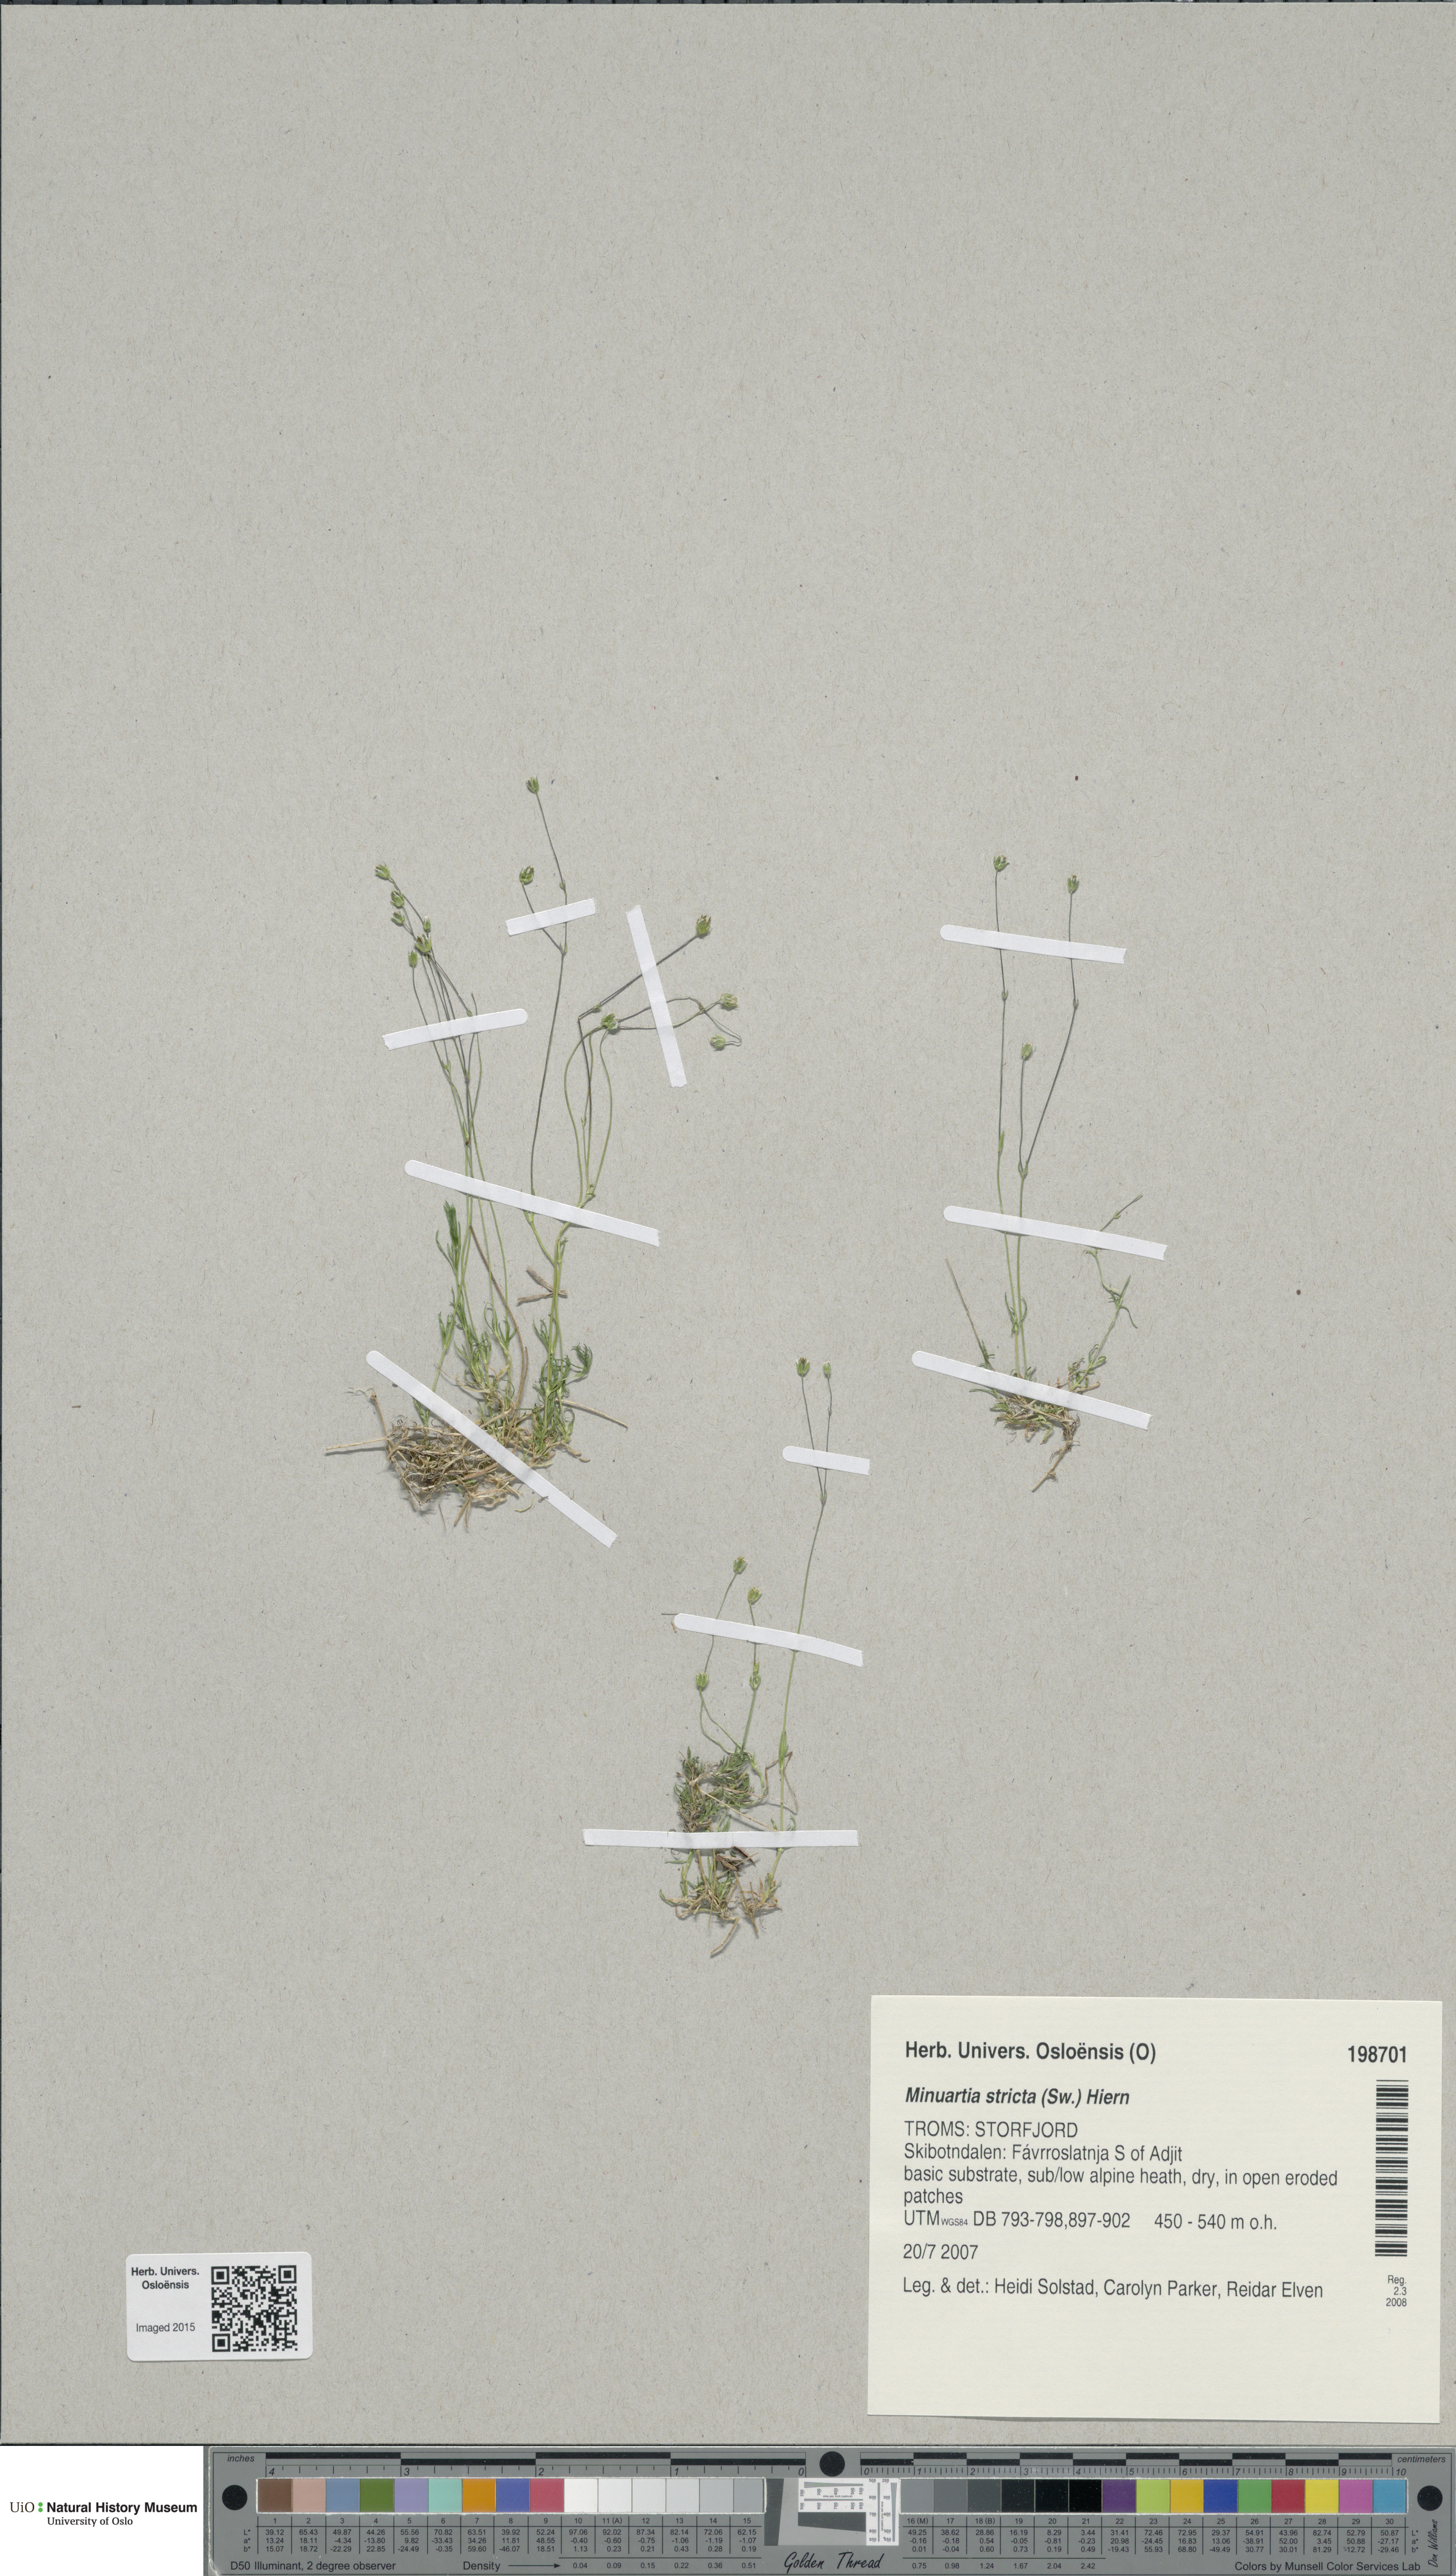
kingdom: Plantae
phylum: Tracheophyta
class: Magnoliopsida
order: Caryophyllales
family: Caryophyllaceae
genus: Sabulina
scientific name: Sabulina stricta
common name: Bog sandwort
